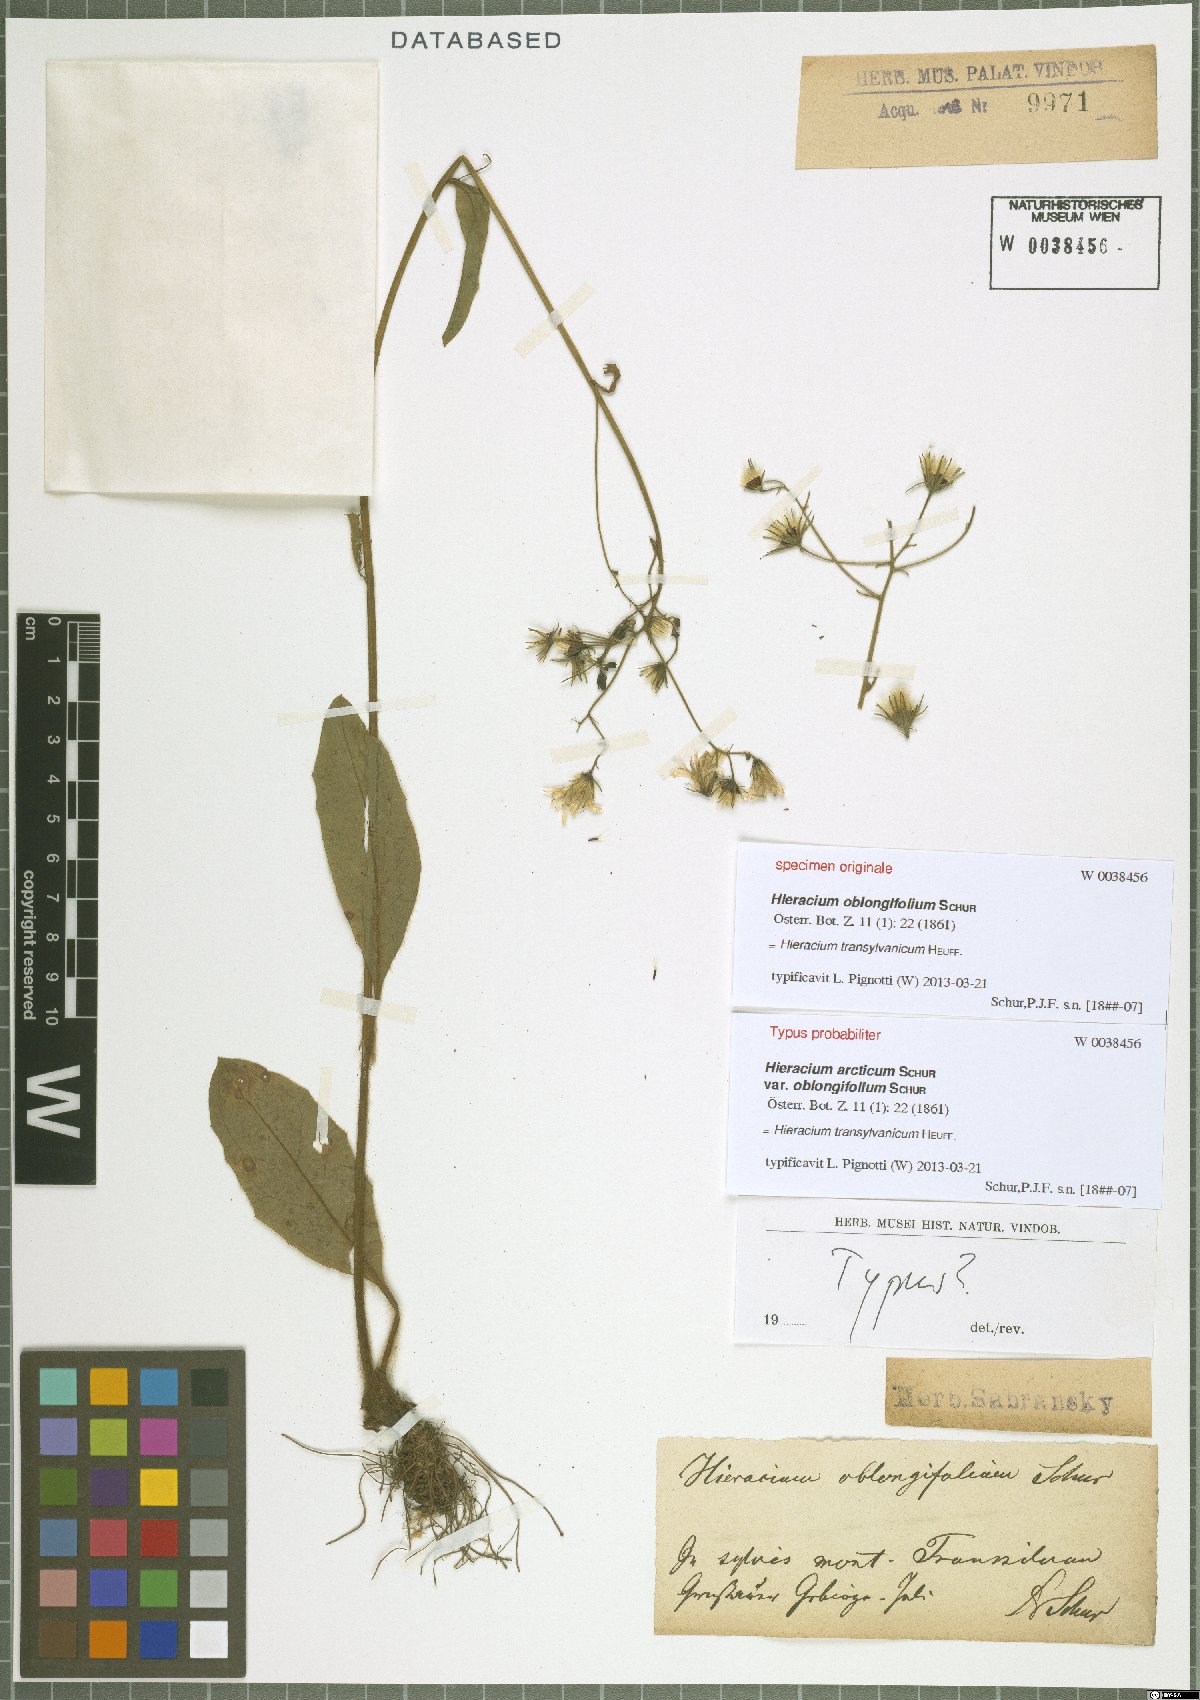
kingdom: Plantae
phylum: Tracheophyta
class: Magnoliopsida
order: Asterales
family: Asteraceae
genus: Hieracium
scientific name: Hieracium transylvanicum
